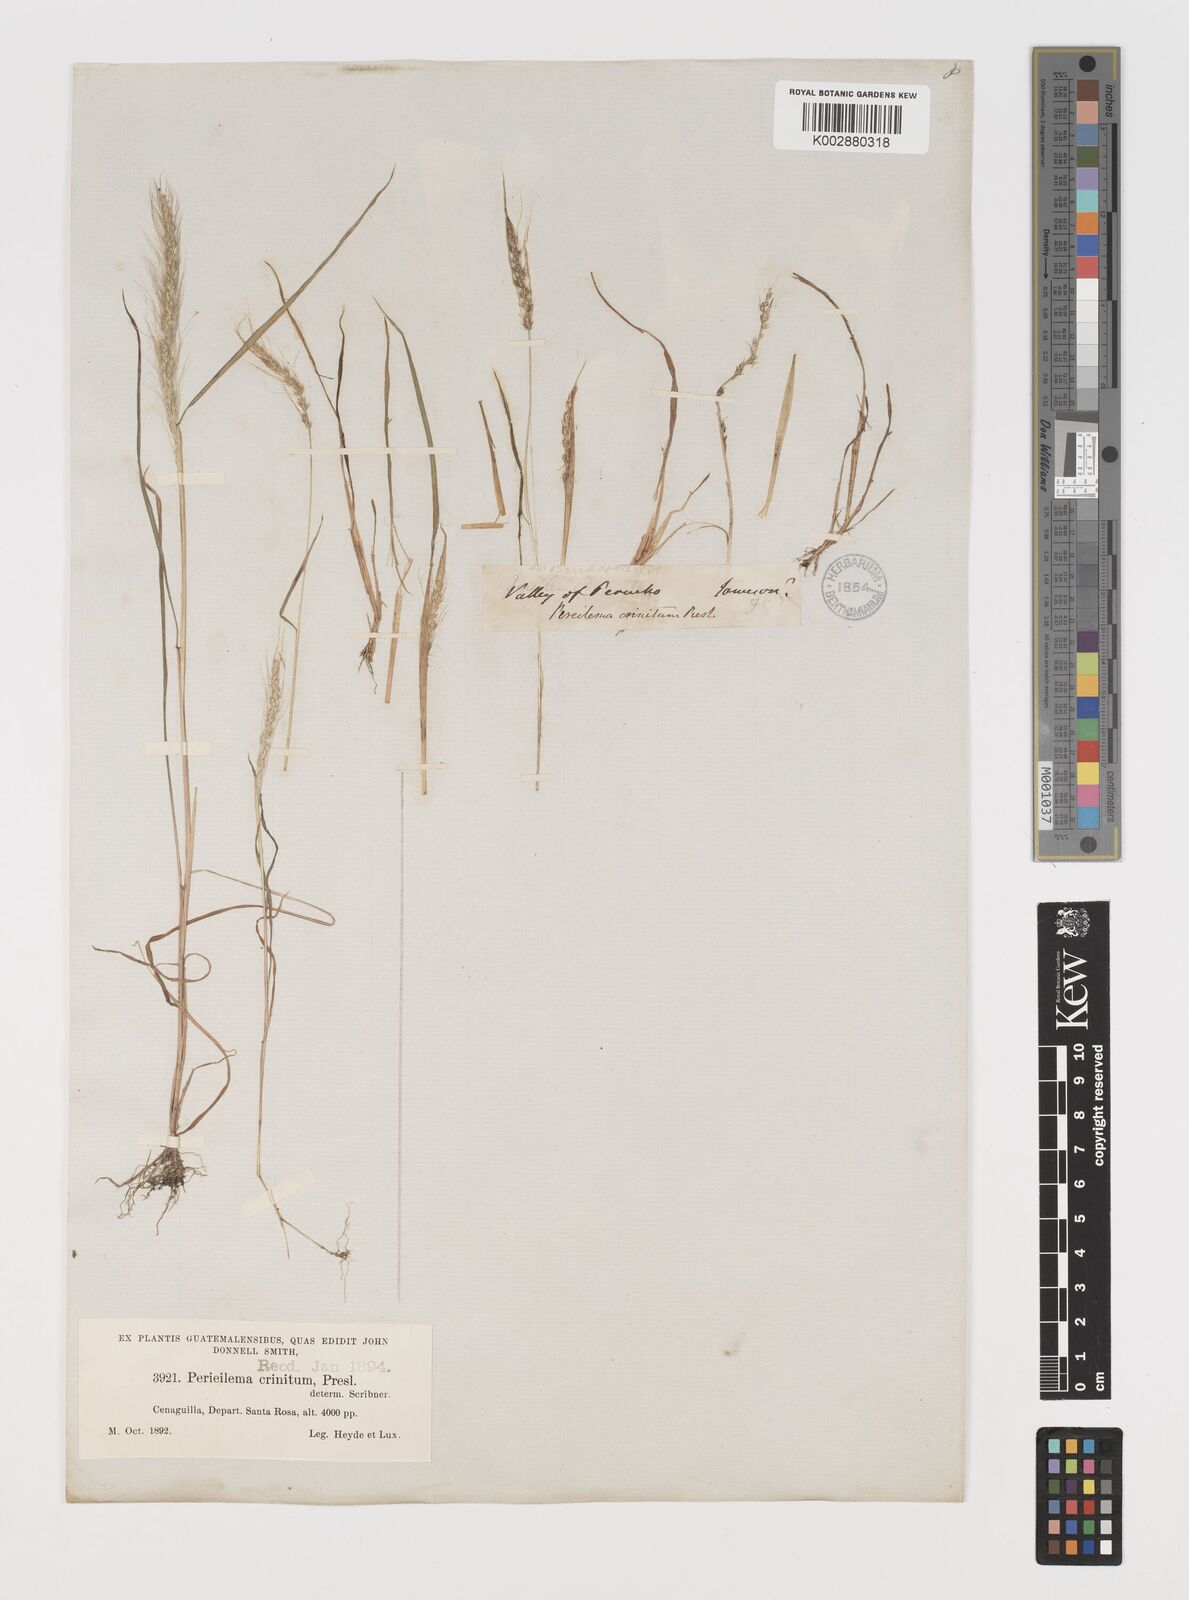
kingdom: Plantae
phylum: Tracheophyta
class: Liliopsida
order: Poales
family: Poaceae
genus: Muhlenbergia
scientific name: Muhlenbergia pereilema
